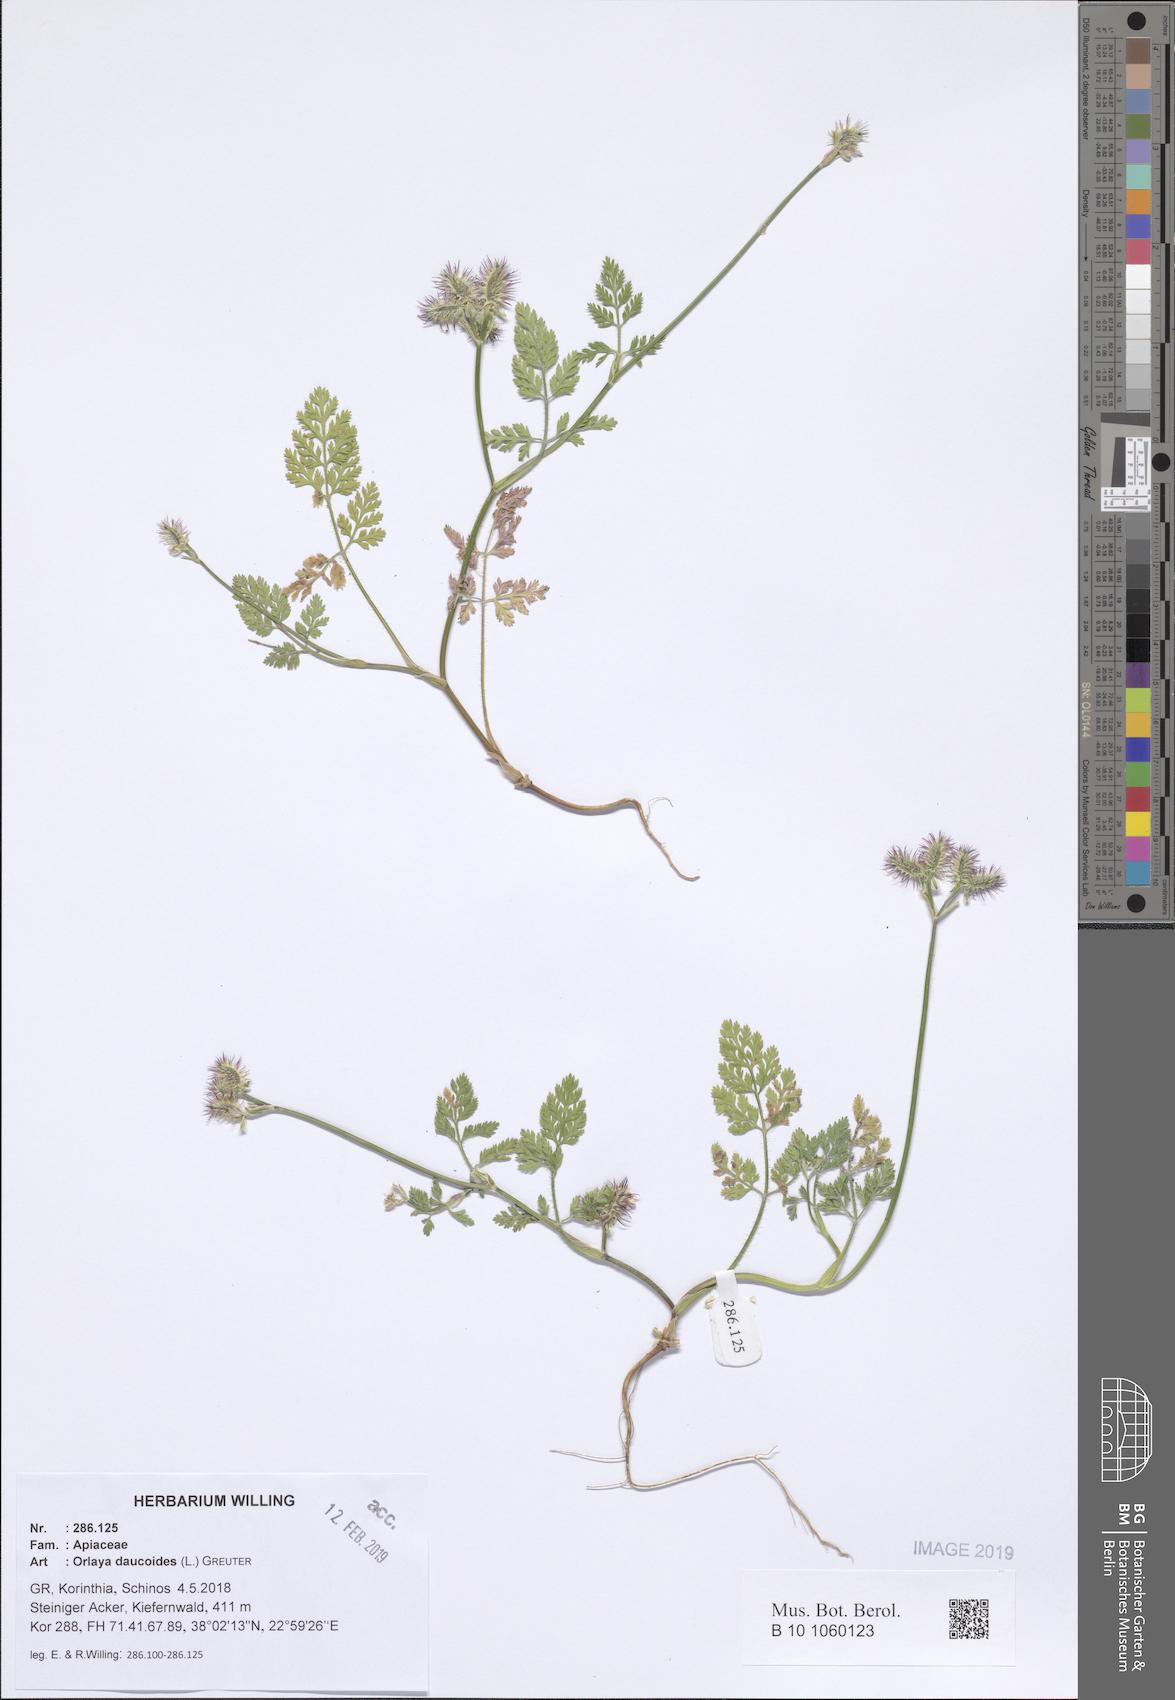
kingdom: Plantae
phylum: Tracheophyta
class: Magnoliopsida
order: Apiales
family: Apiaceae
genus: Orlaya
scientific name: Orlaya daucoides
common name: Flat-fruit orlaya
